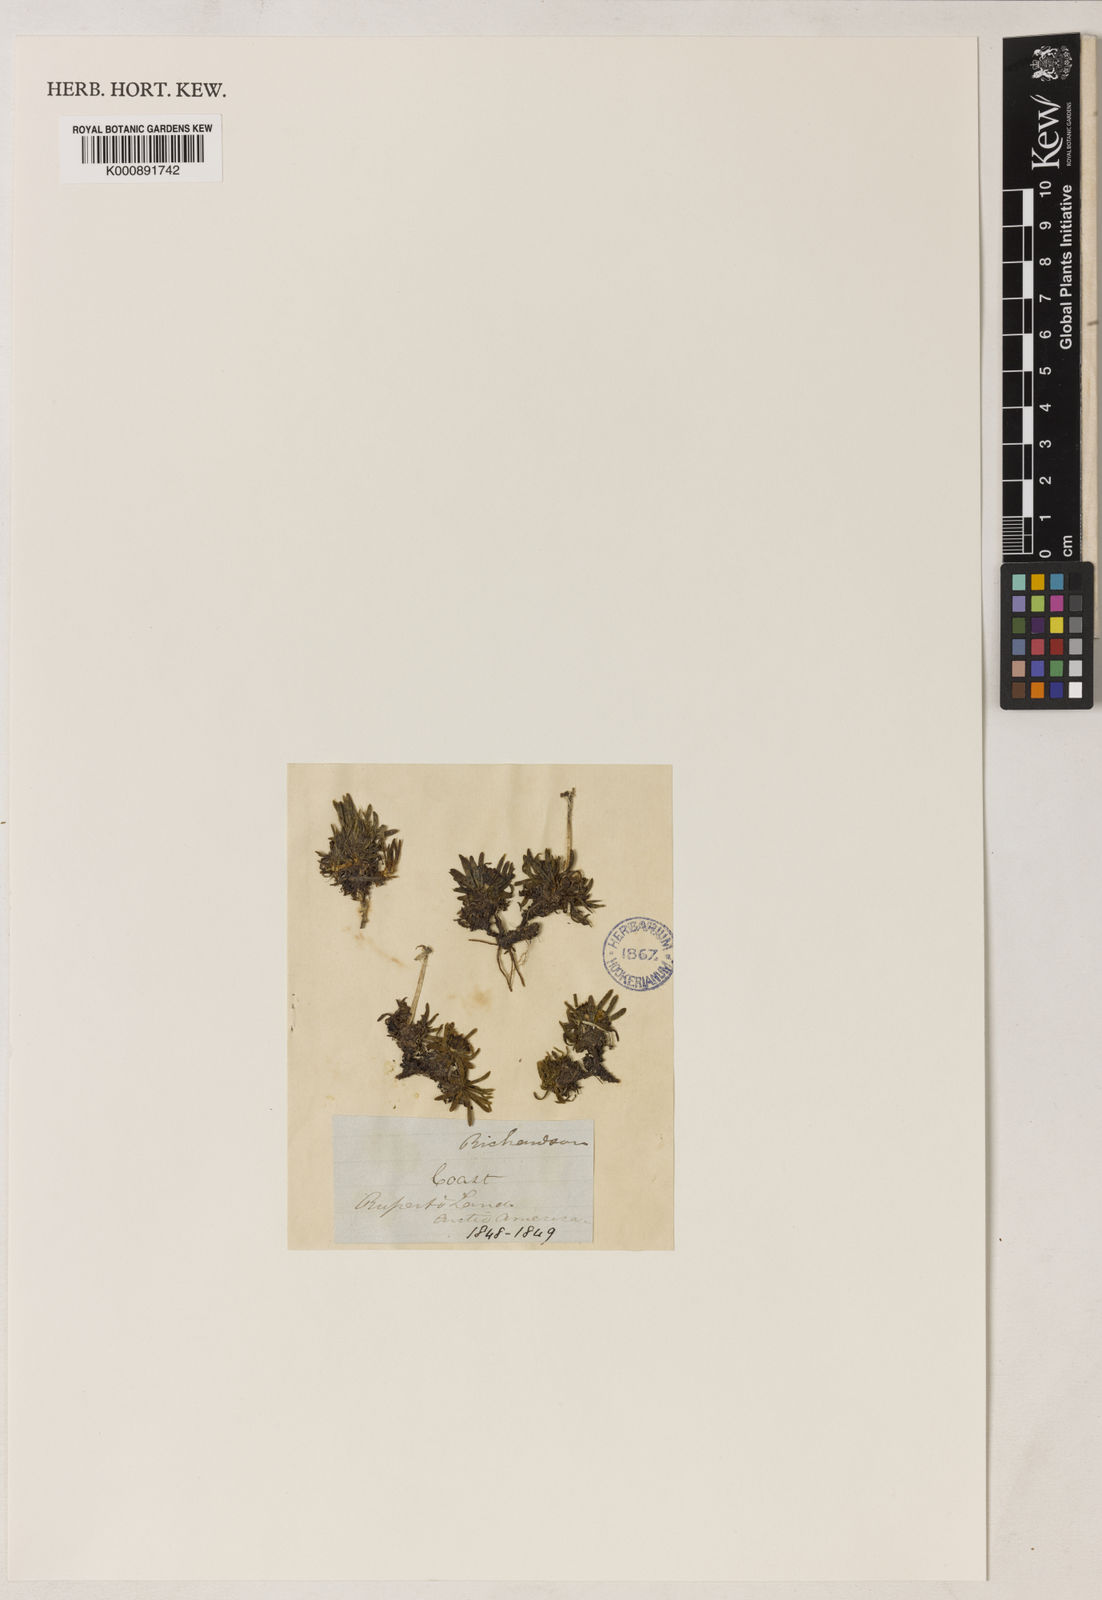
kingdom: Plantae
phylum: Tracheophyta
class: Magnoliopsida
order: Asterales
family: Asteraceae
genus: Arctanthemum
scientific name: Arctanthemum integrifolium
